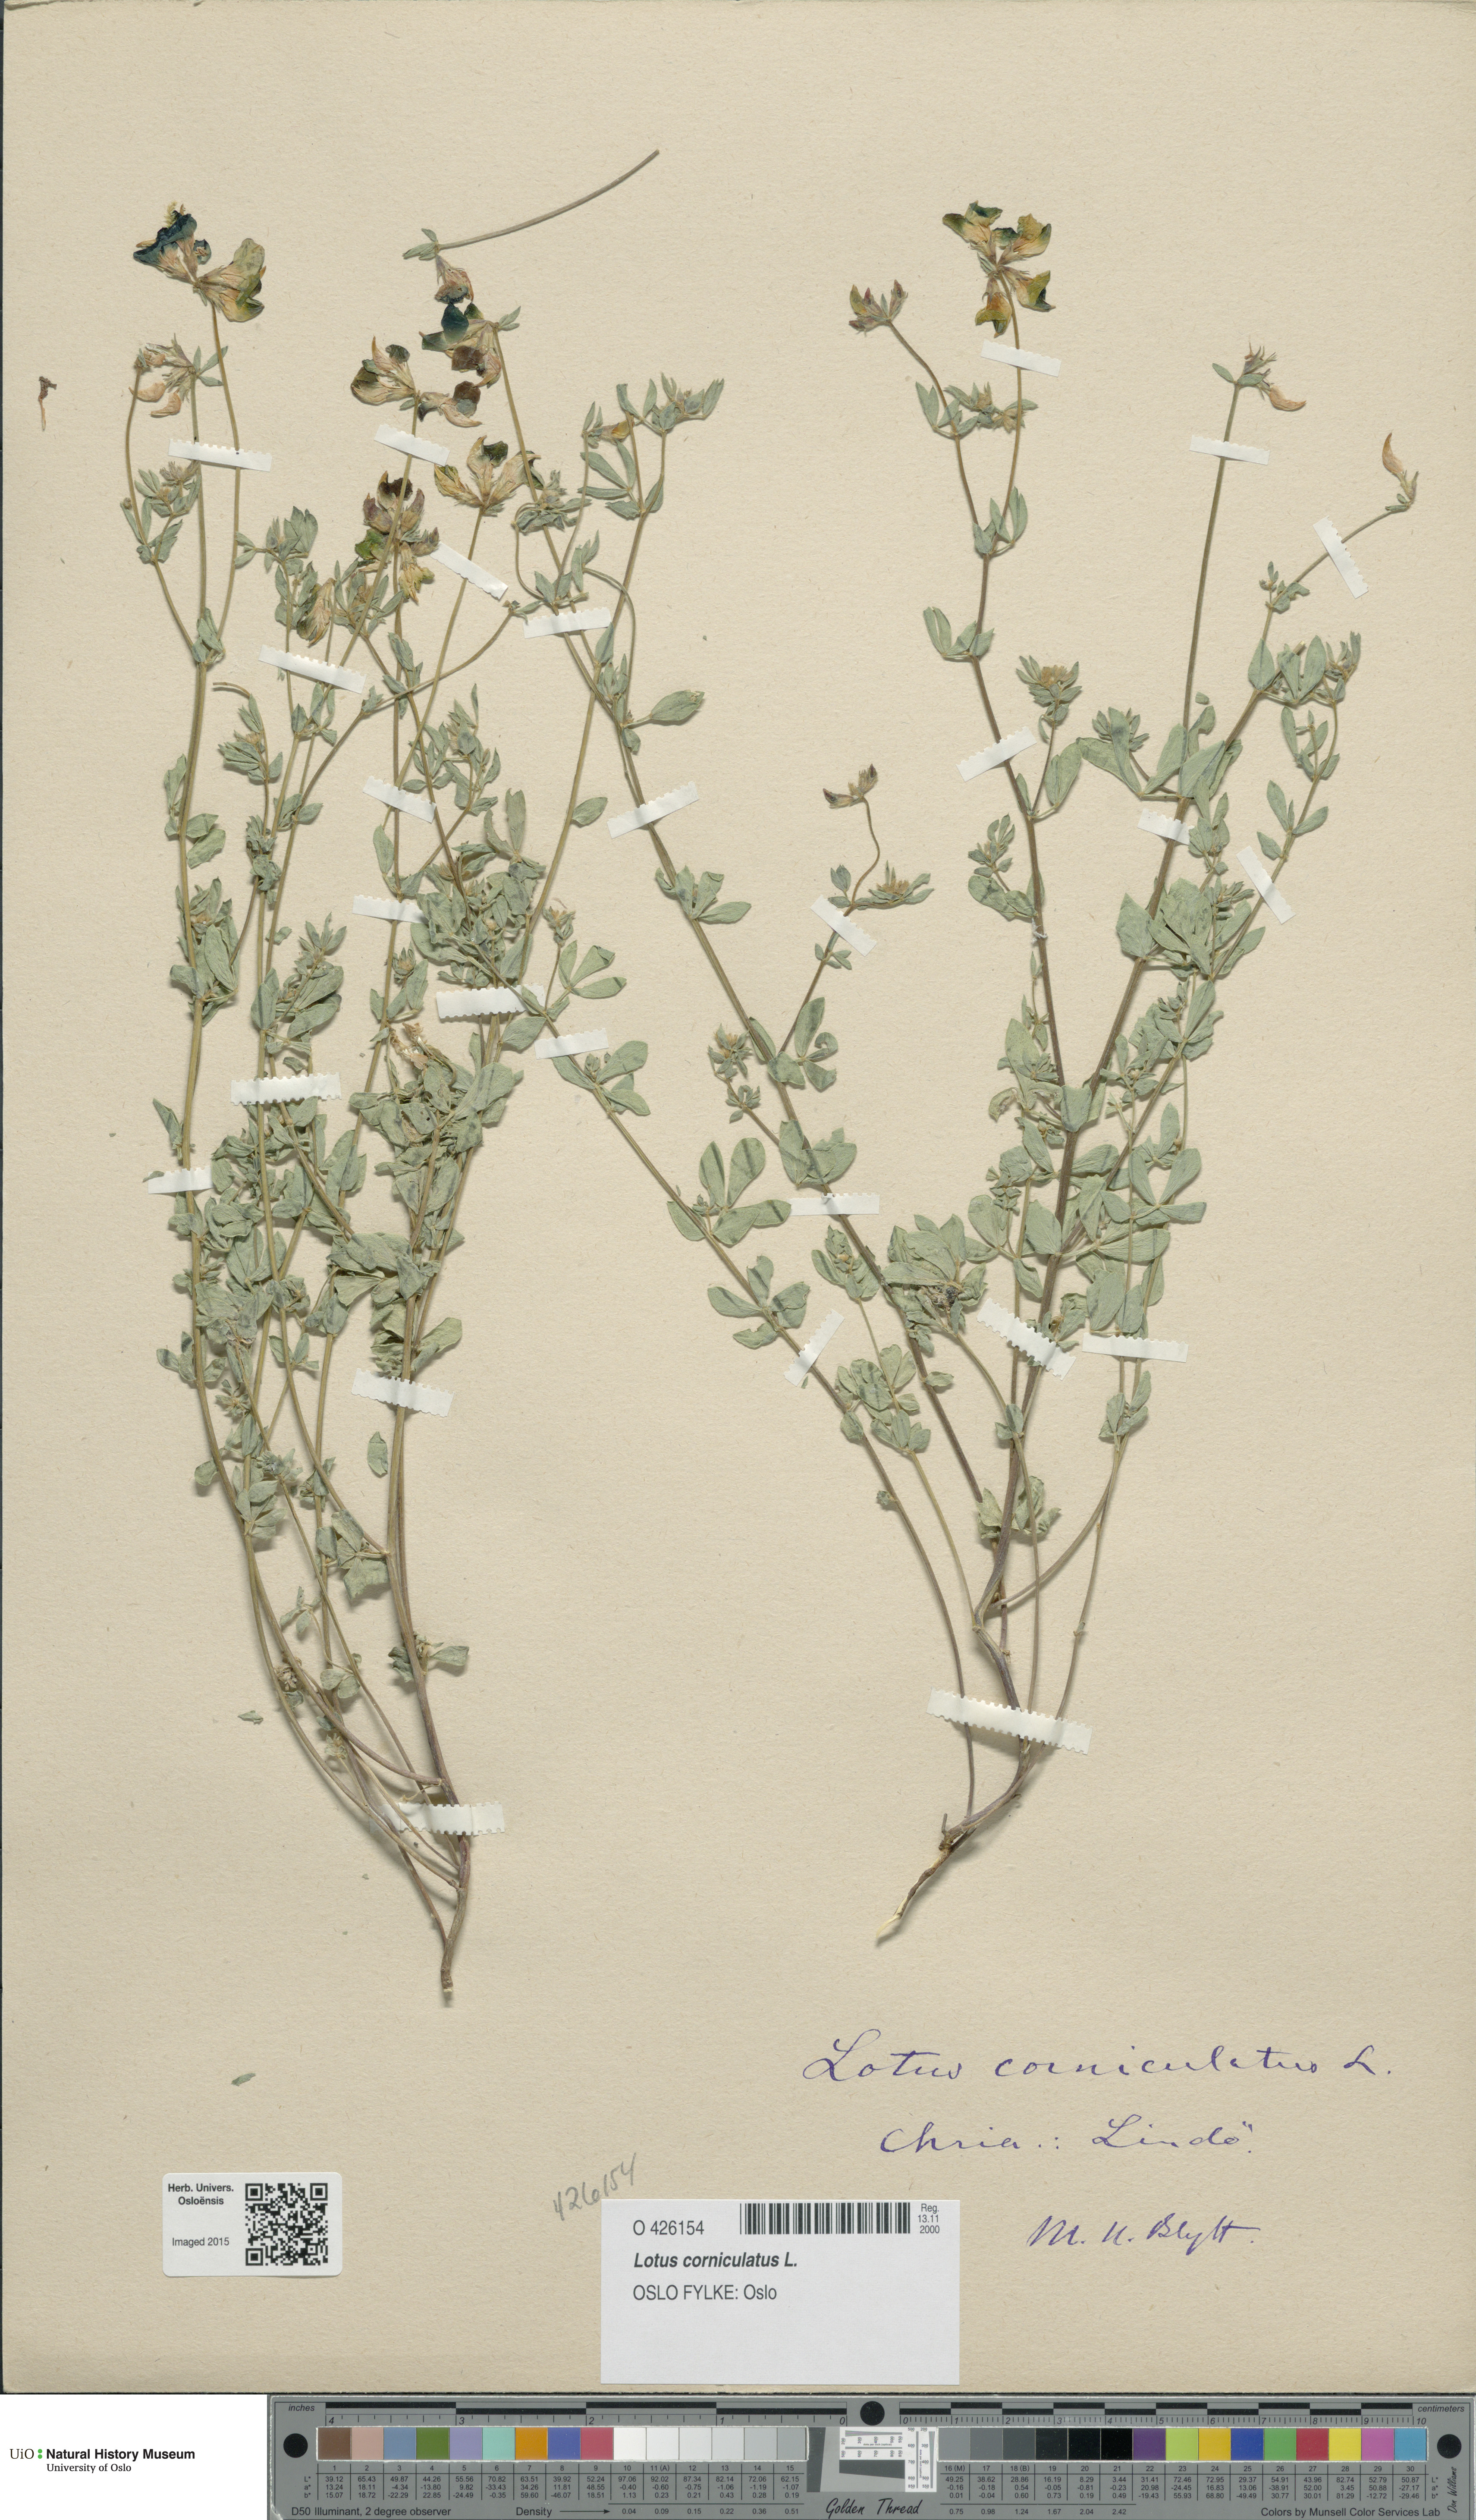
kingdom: Plantae
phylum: Tracheophyta
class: Magnoliopsida
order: Fabales
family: Fabaceae
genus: Lotus
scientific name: Lotus corniculatus
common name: Common bird's-foot-trefoil
